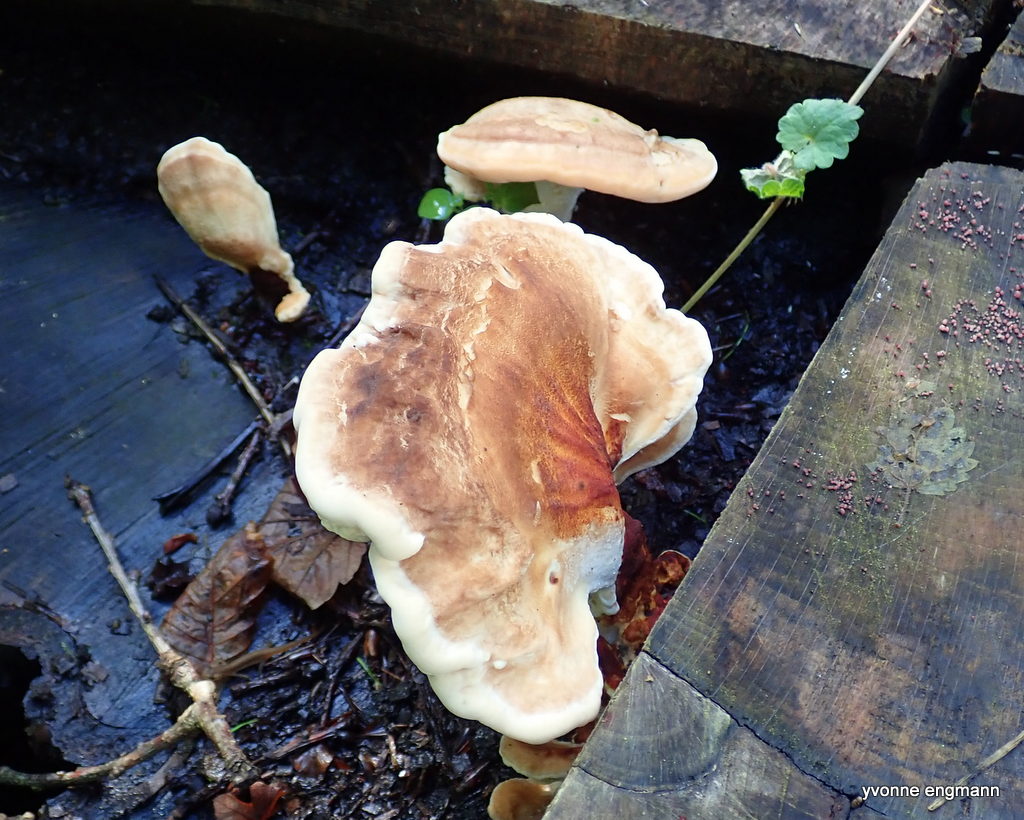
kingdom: Fungi
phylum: Basidiomycota
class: Agaricomycetes
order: Polyporales
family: Meripilaceae
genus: Meripilus
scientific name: Meripilus giganteus
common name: kæmpeporesvamp
